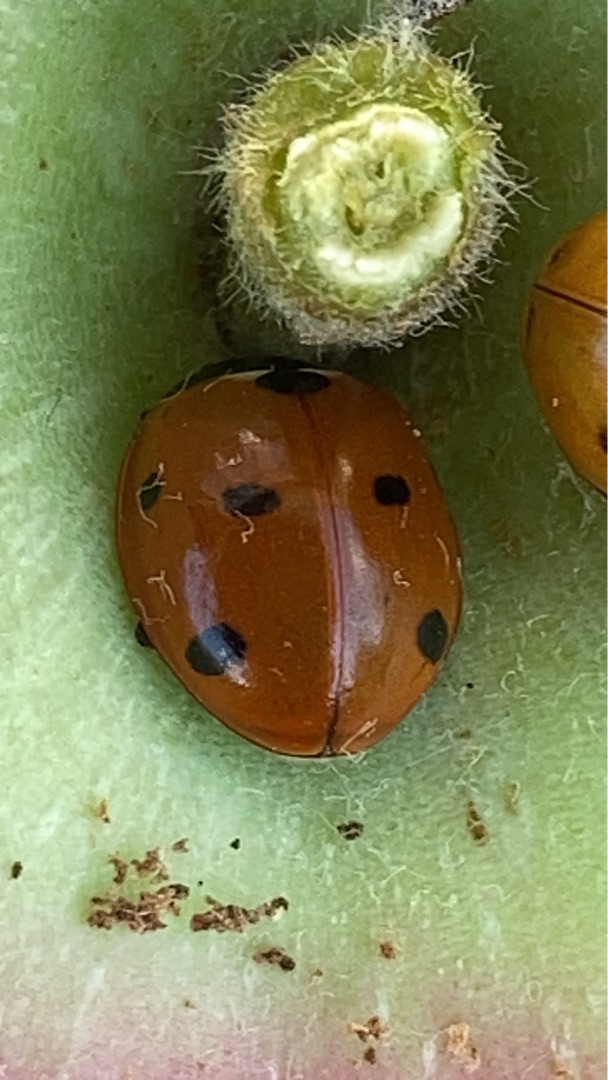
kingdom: Animalia
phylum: Arthropoda
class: Insecta
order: Coleoptera
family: Coccinellidae
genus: Coccinella
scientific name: Coccinella septempunctata
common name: Syvplettet mariehøne
